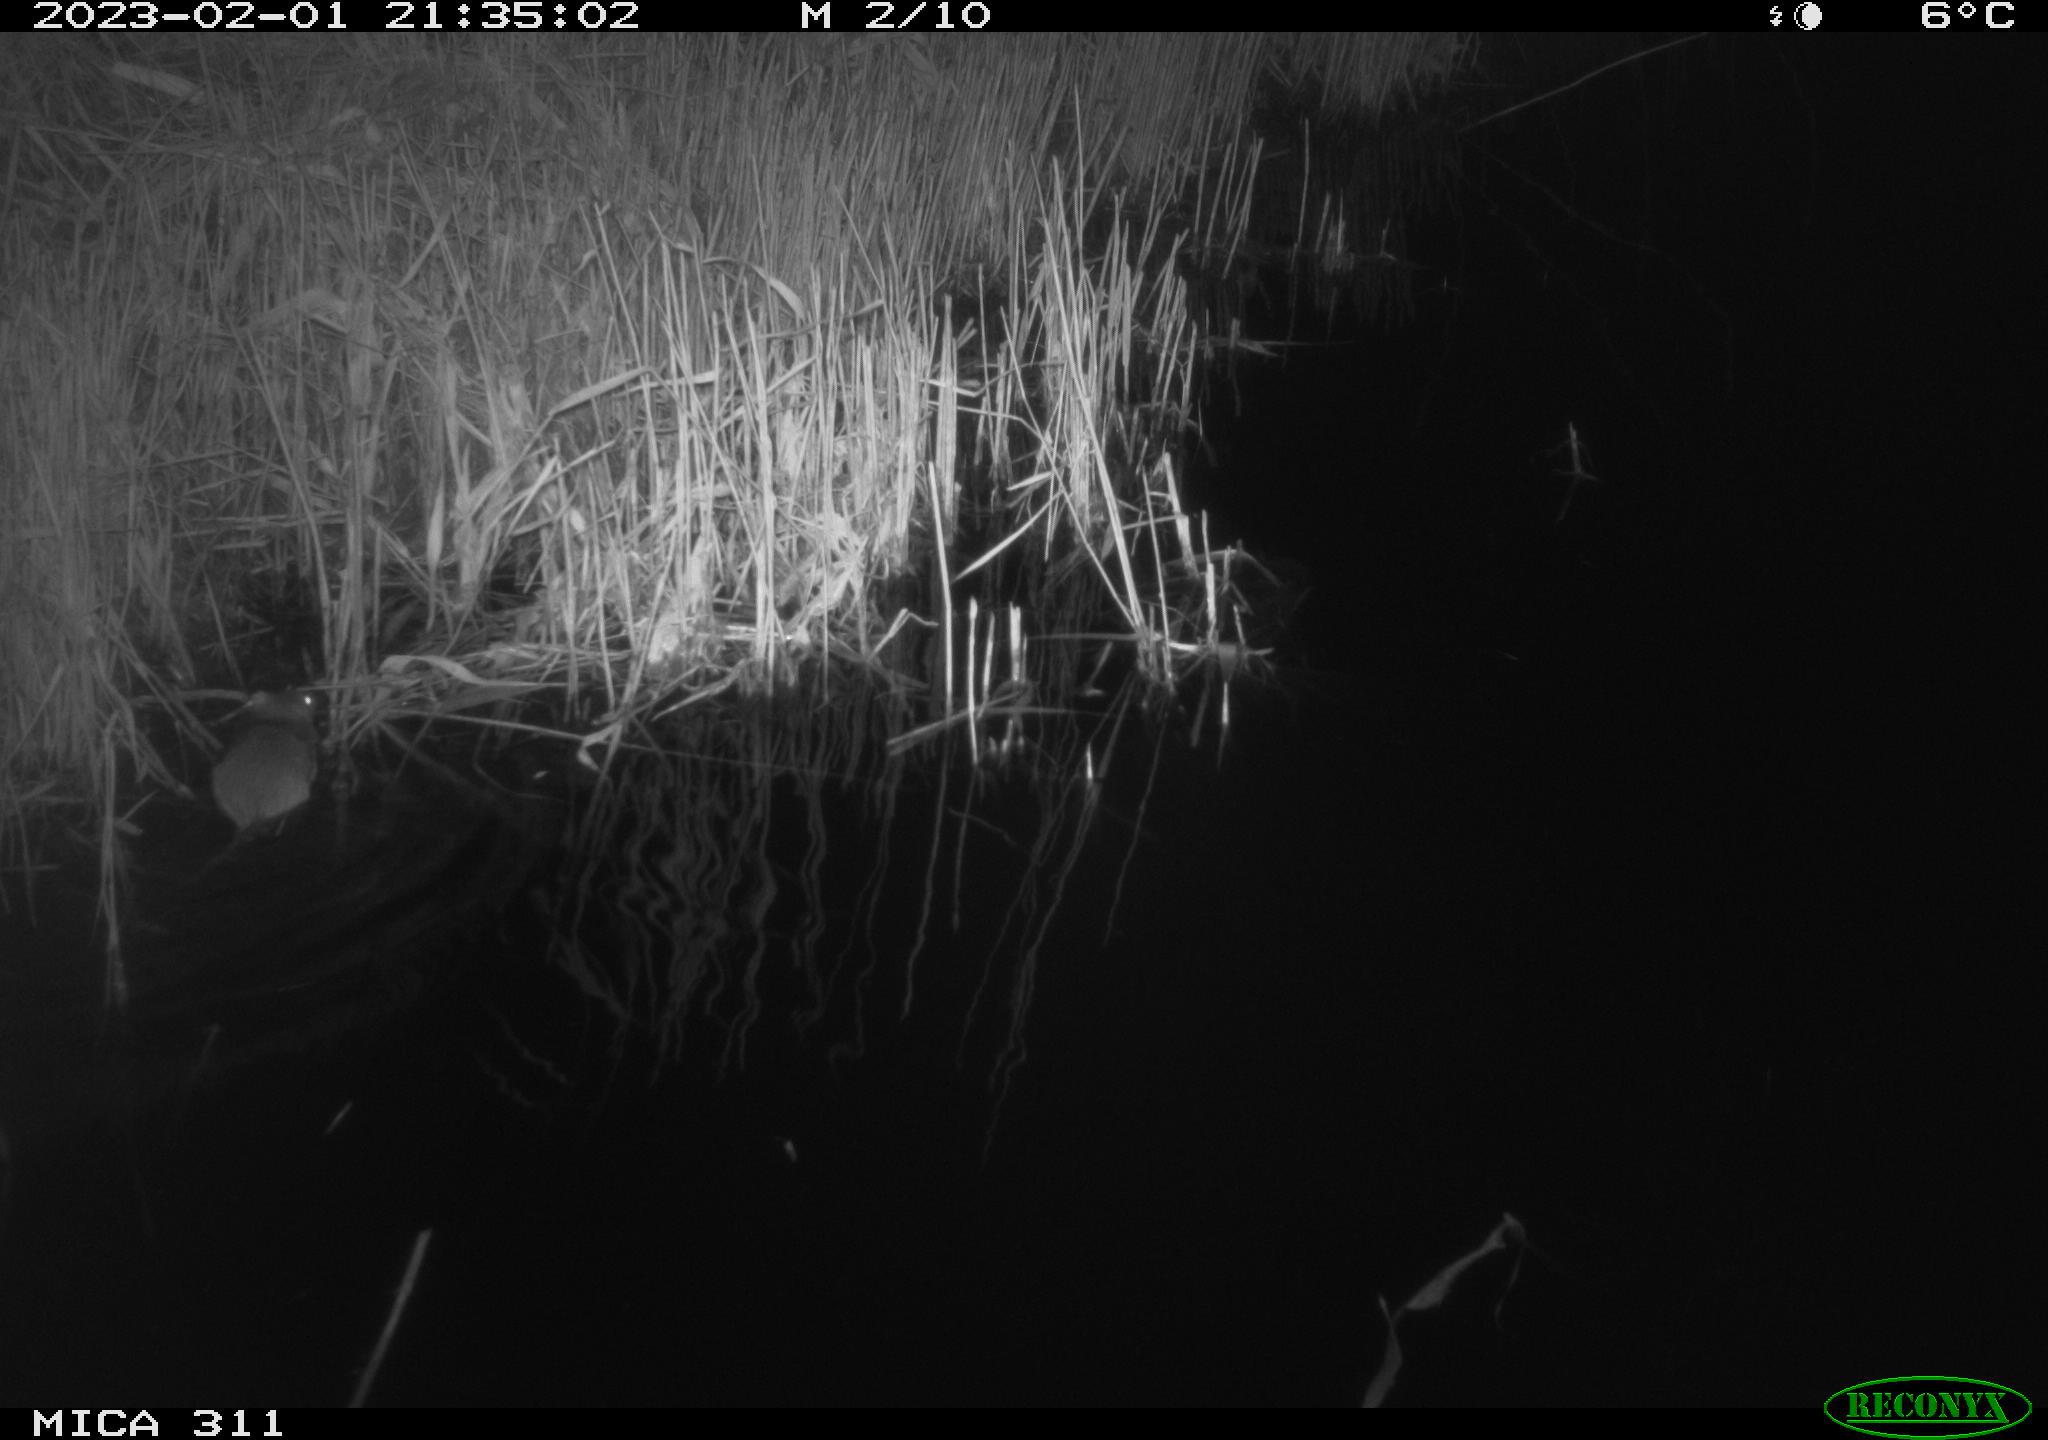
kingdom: Animalia
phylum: Chordata
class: Mammalia
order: Rodentia
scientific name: Rodentia
